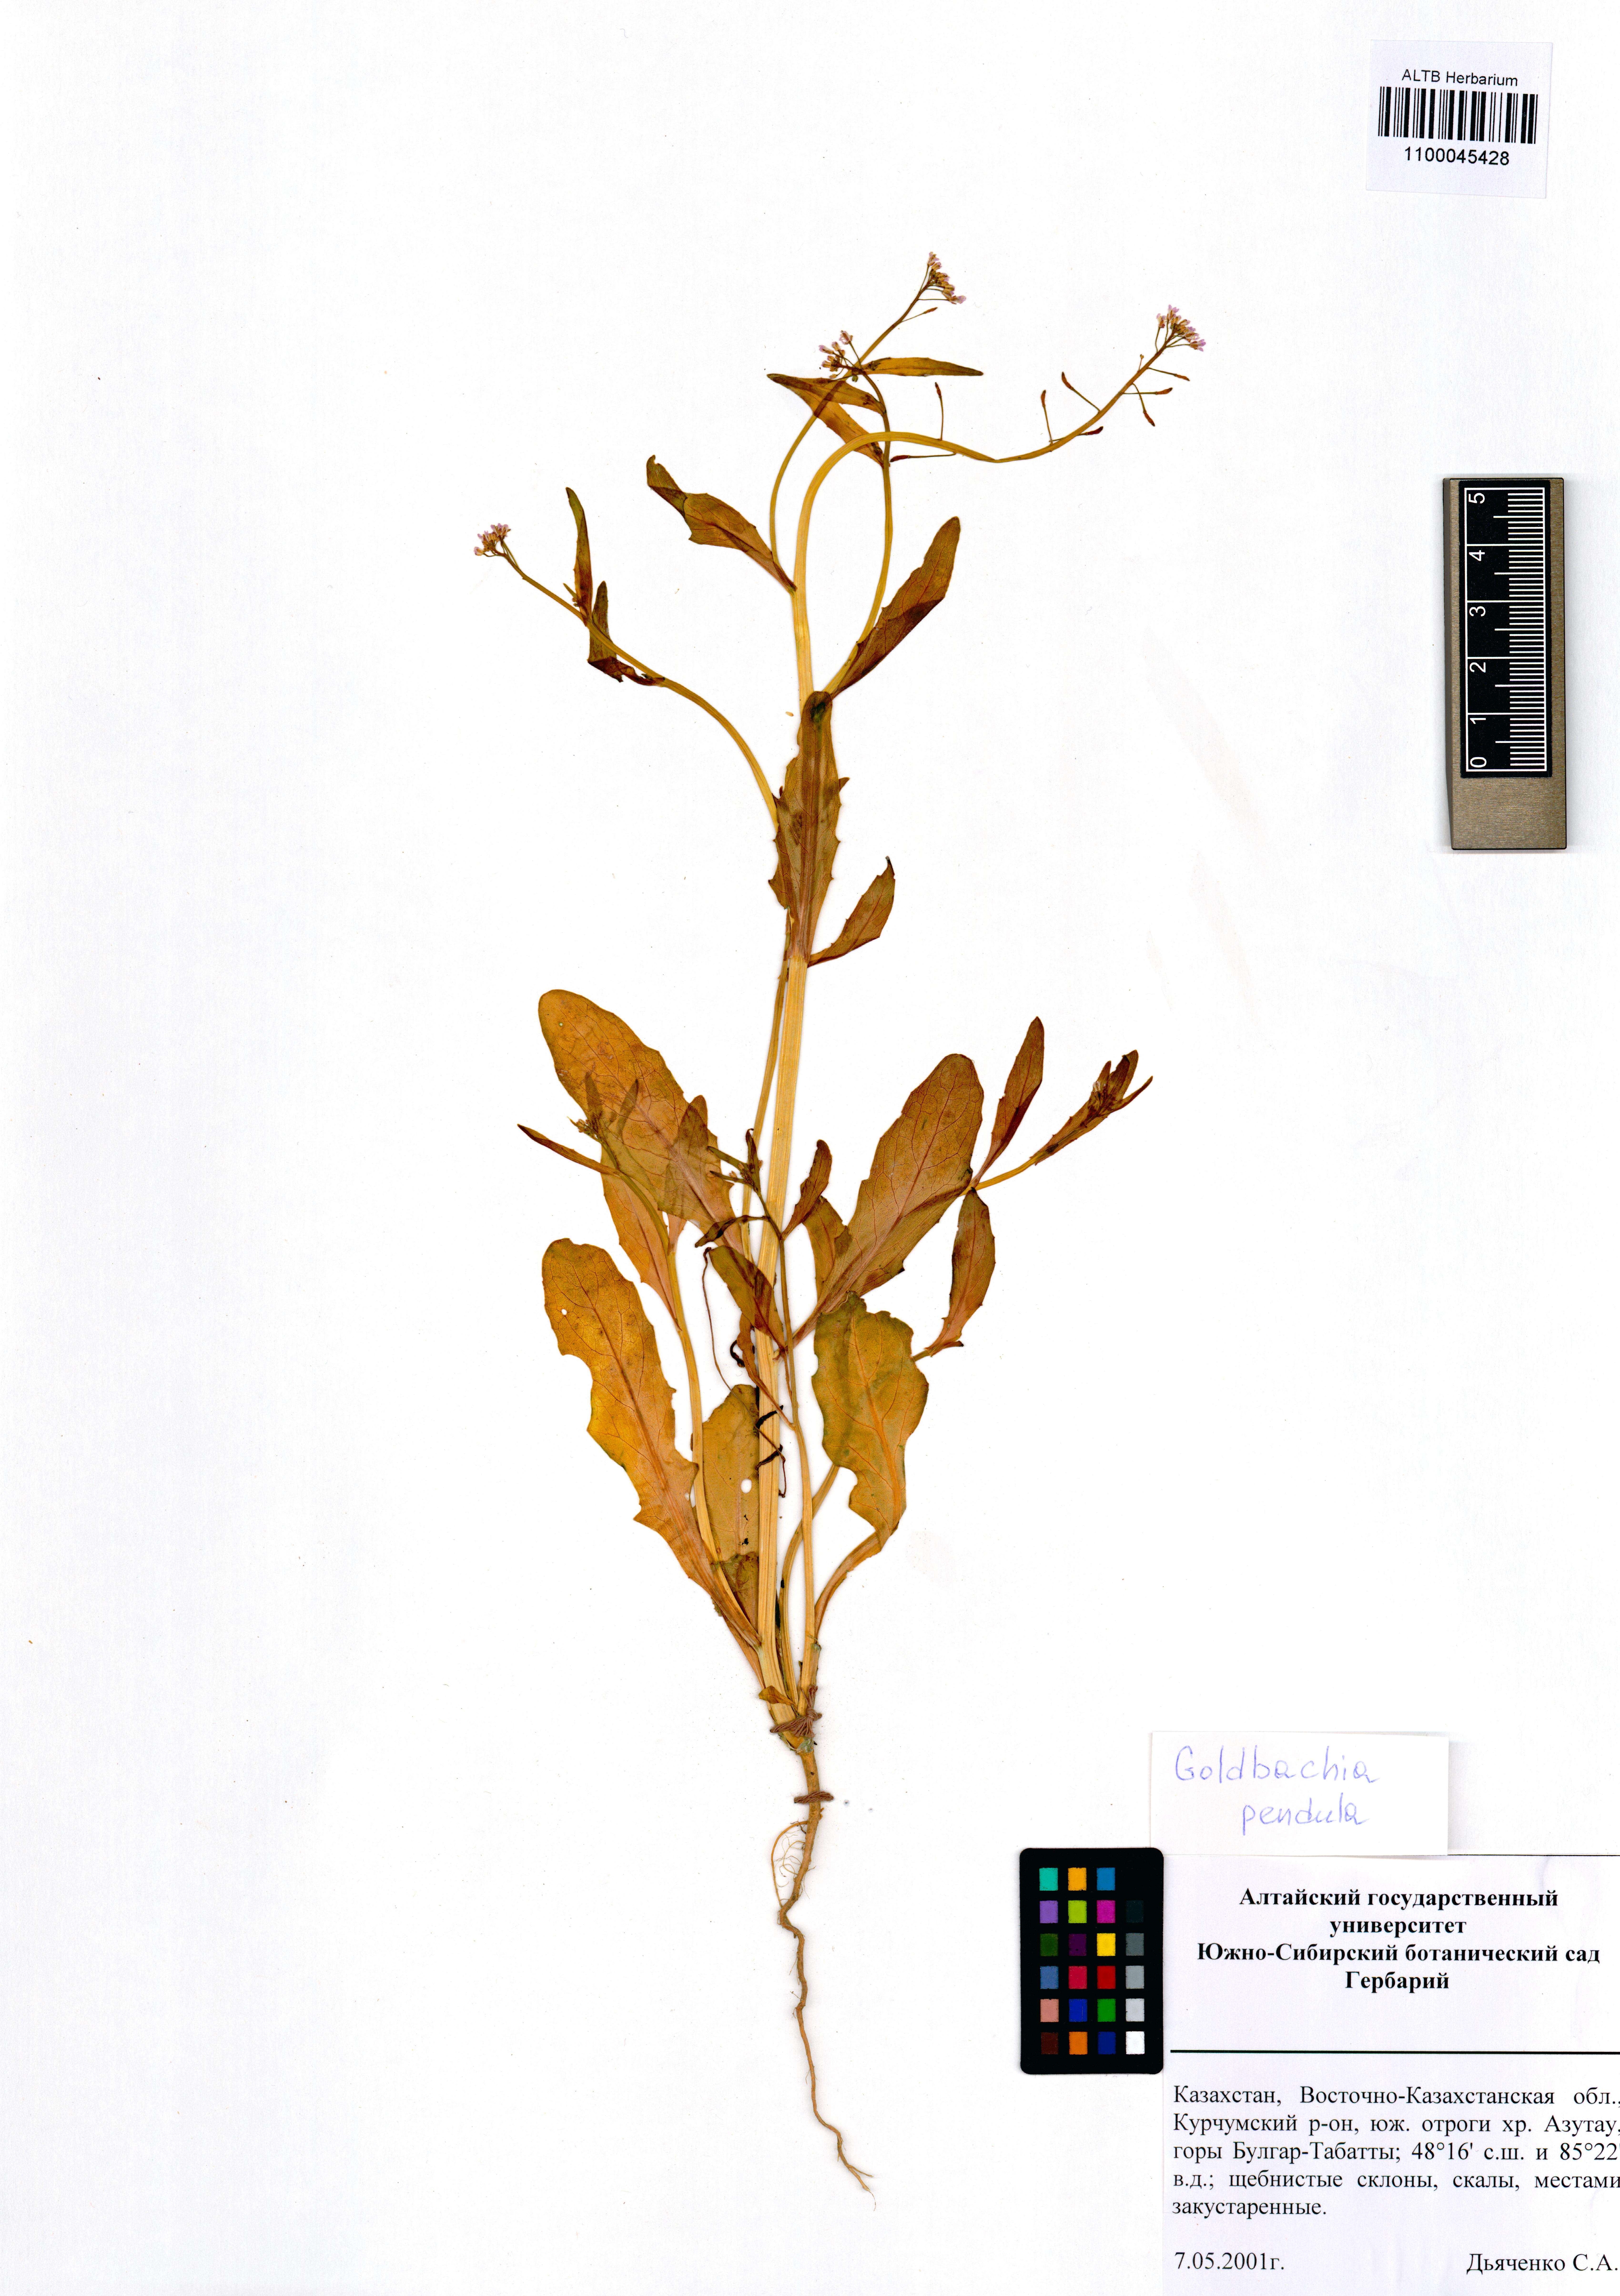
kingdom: Plantae
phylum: Tracheophyta
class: Magnoliopsida
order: Brassicales
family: Brassicaceae
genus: Goldbachia
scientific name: Goldbachia pendula
